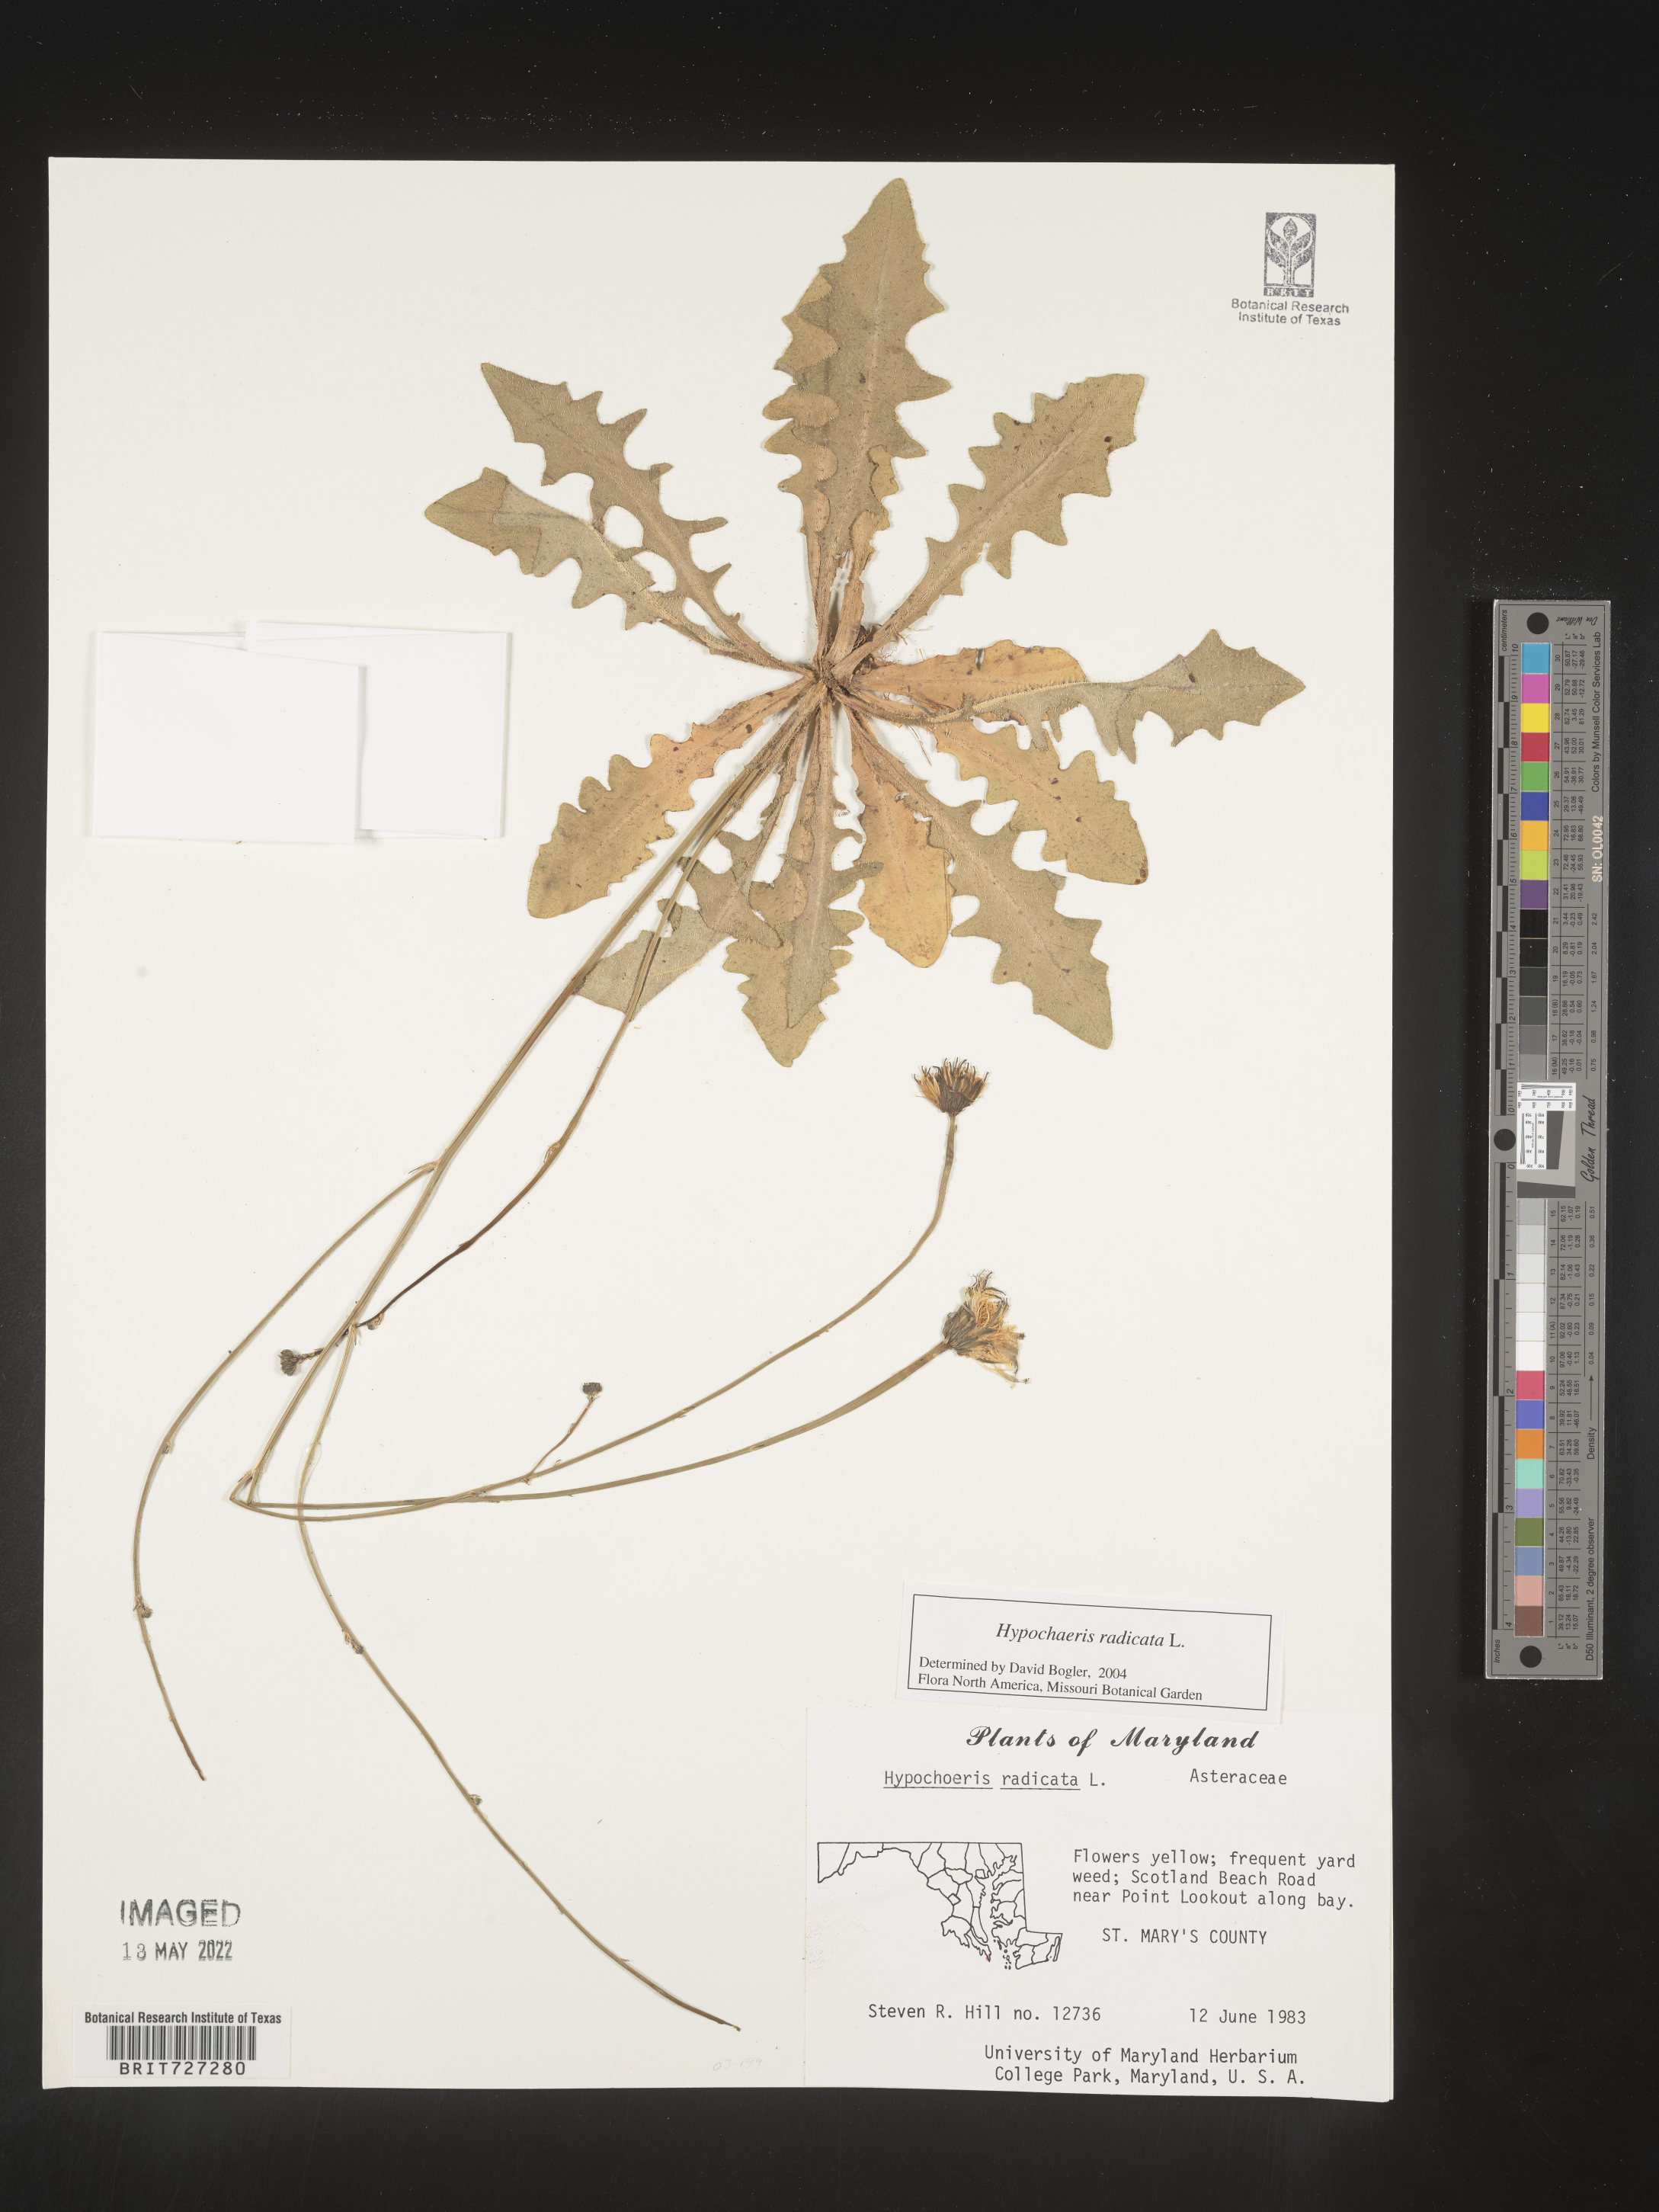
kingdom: Plantae
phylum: Tracheophyta
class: Magnoliopsida
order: Asterales
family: Asteraceae
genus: Hypochaeris
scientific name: Hypochaeris radicata
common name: Flatweed
